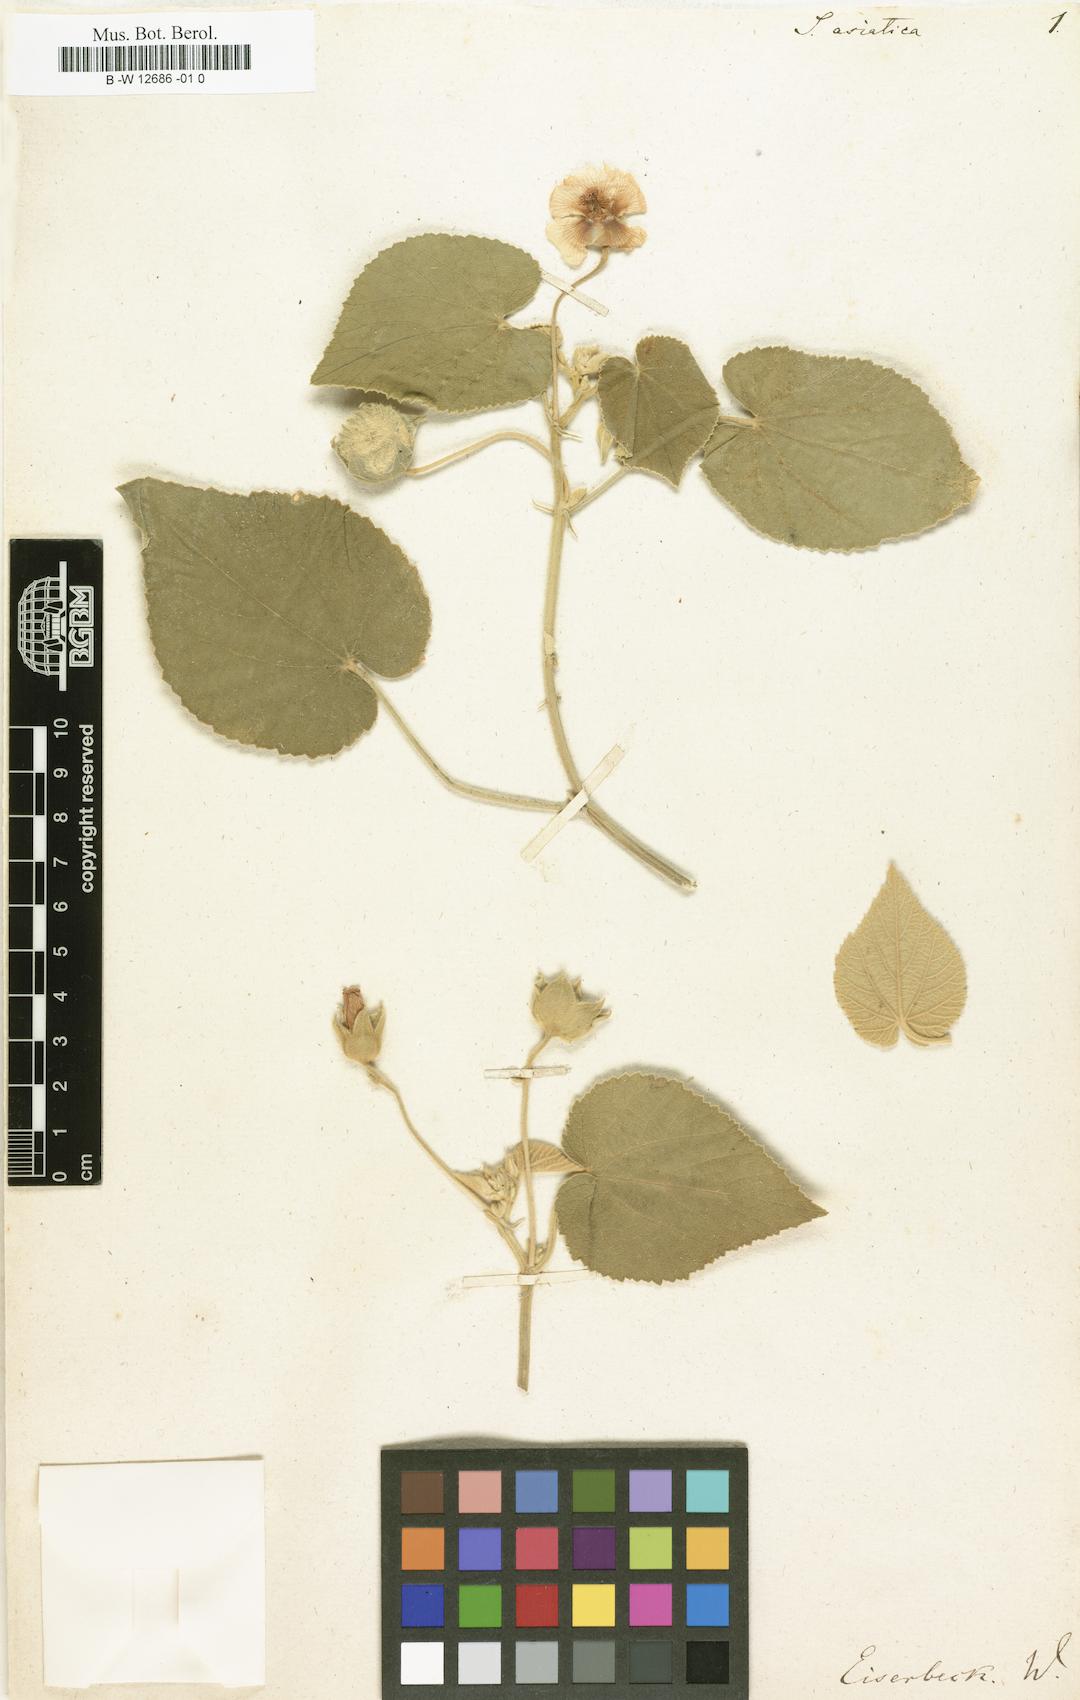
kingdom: Plantae
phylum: Tracheophyta
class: Magnoliopsida
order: Malvales
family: Malvaceae
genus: Sida
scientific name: Sida asiatica
